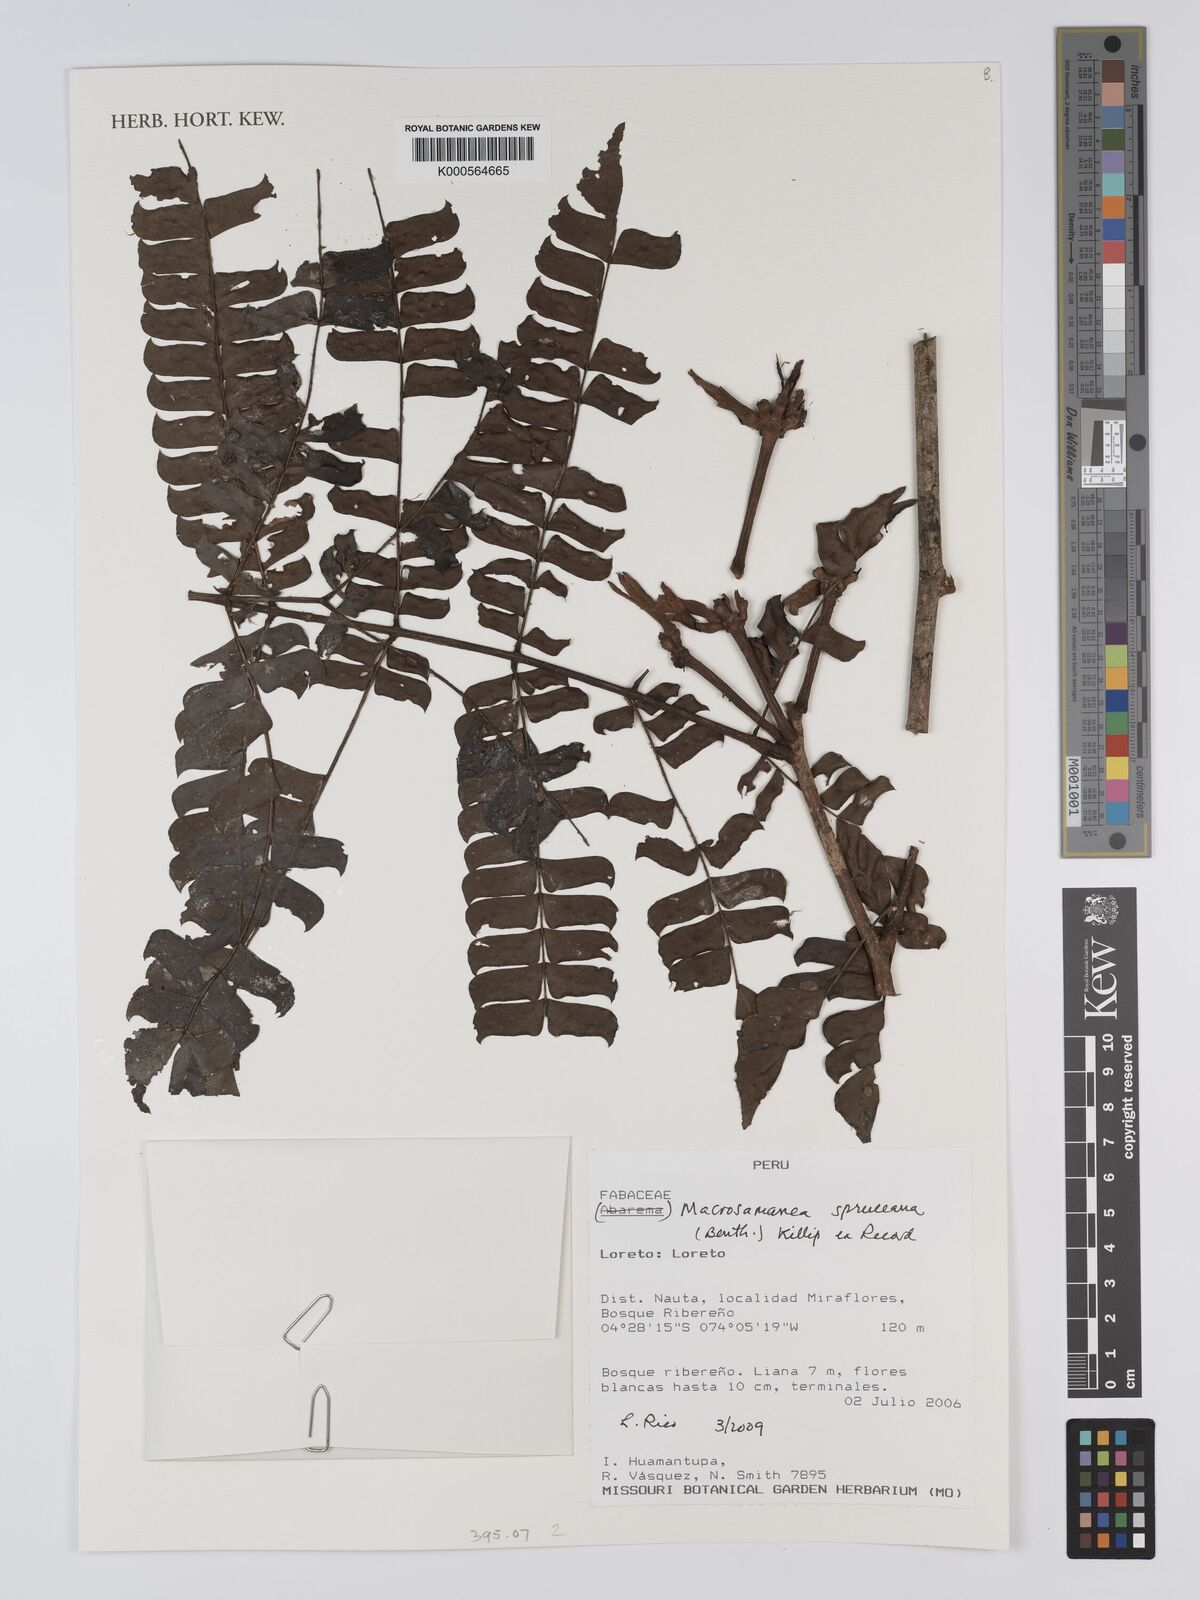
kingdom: Plantae
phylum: Tracheophyta
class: Magnoliopsida
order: Fabales
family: Fabaceae
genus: Macrosamanea
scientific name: Macrosamanea spruceana
